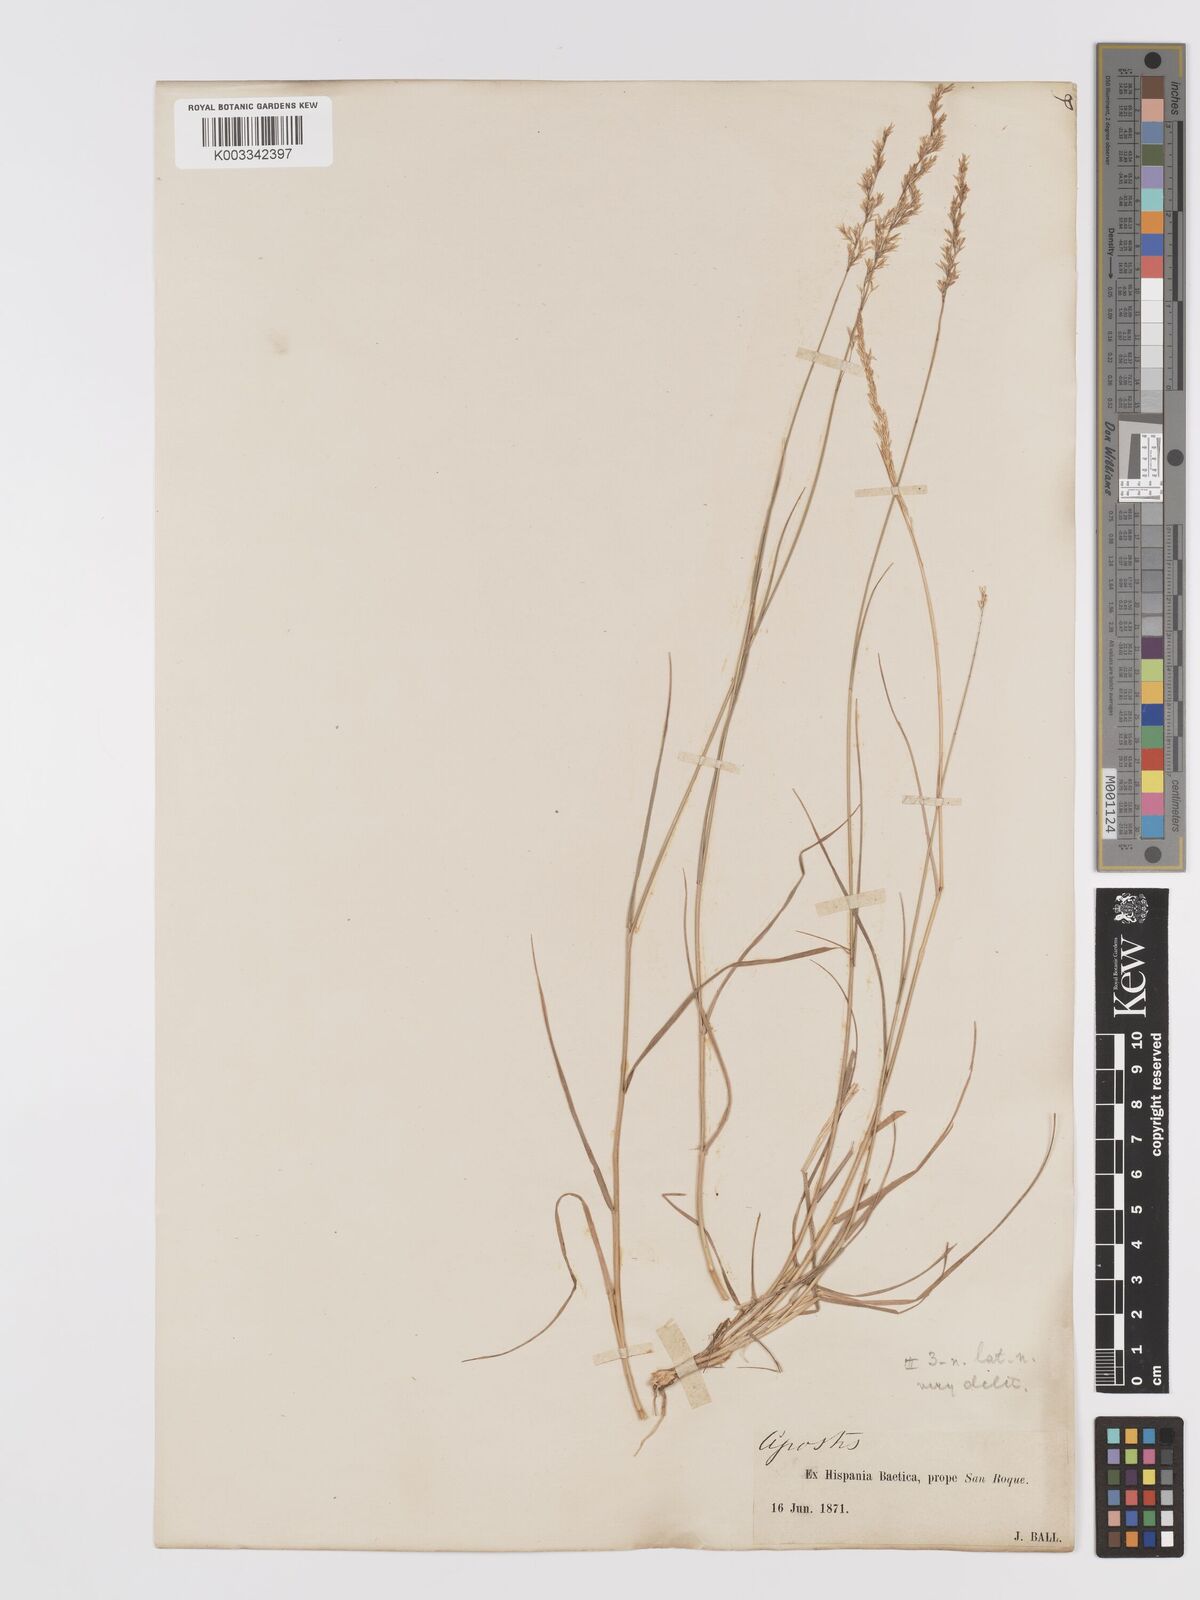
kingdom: Plantae
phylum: Tracheophyta
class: Liliopsida
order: Poales
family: Poaceae
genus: Agrostis
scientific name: Agrostis castellana
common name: Highland bent
